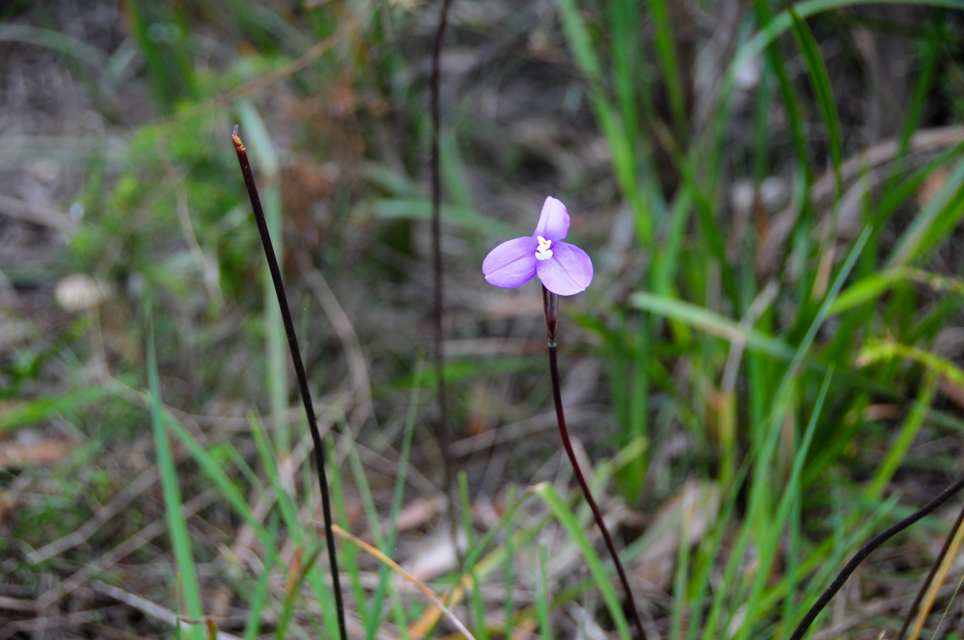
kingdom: Plantae
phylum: Tracheophyta
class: Liliopsida
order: Asparagales
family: Iridaceae
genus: Patersonia
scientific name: Patersonia glabrata
